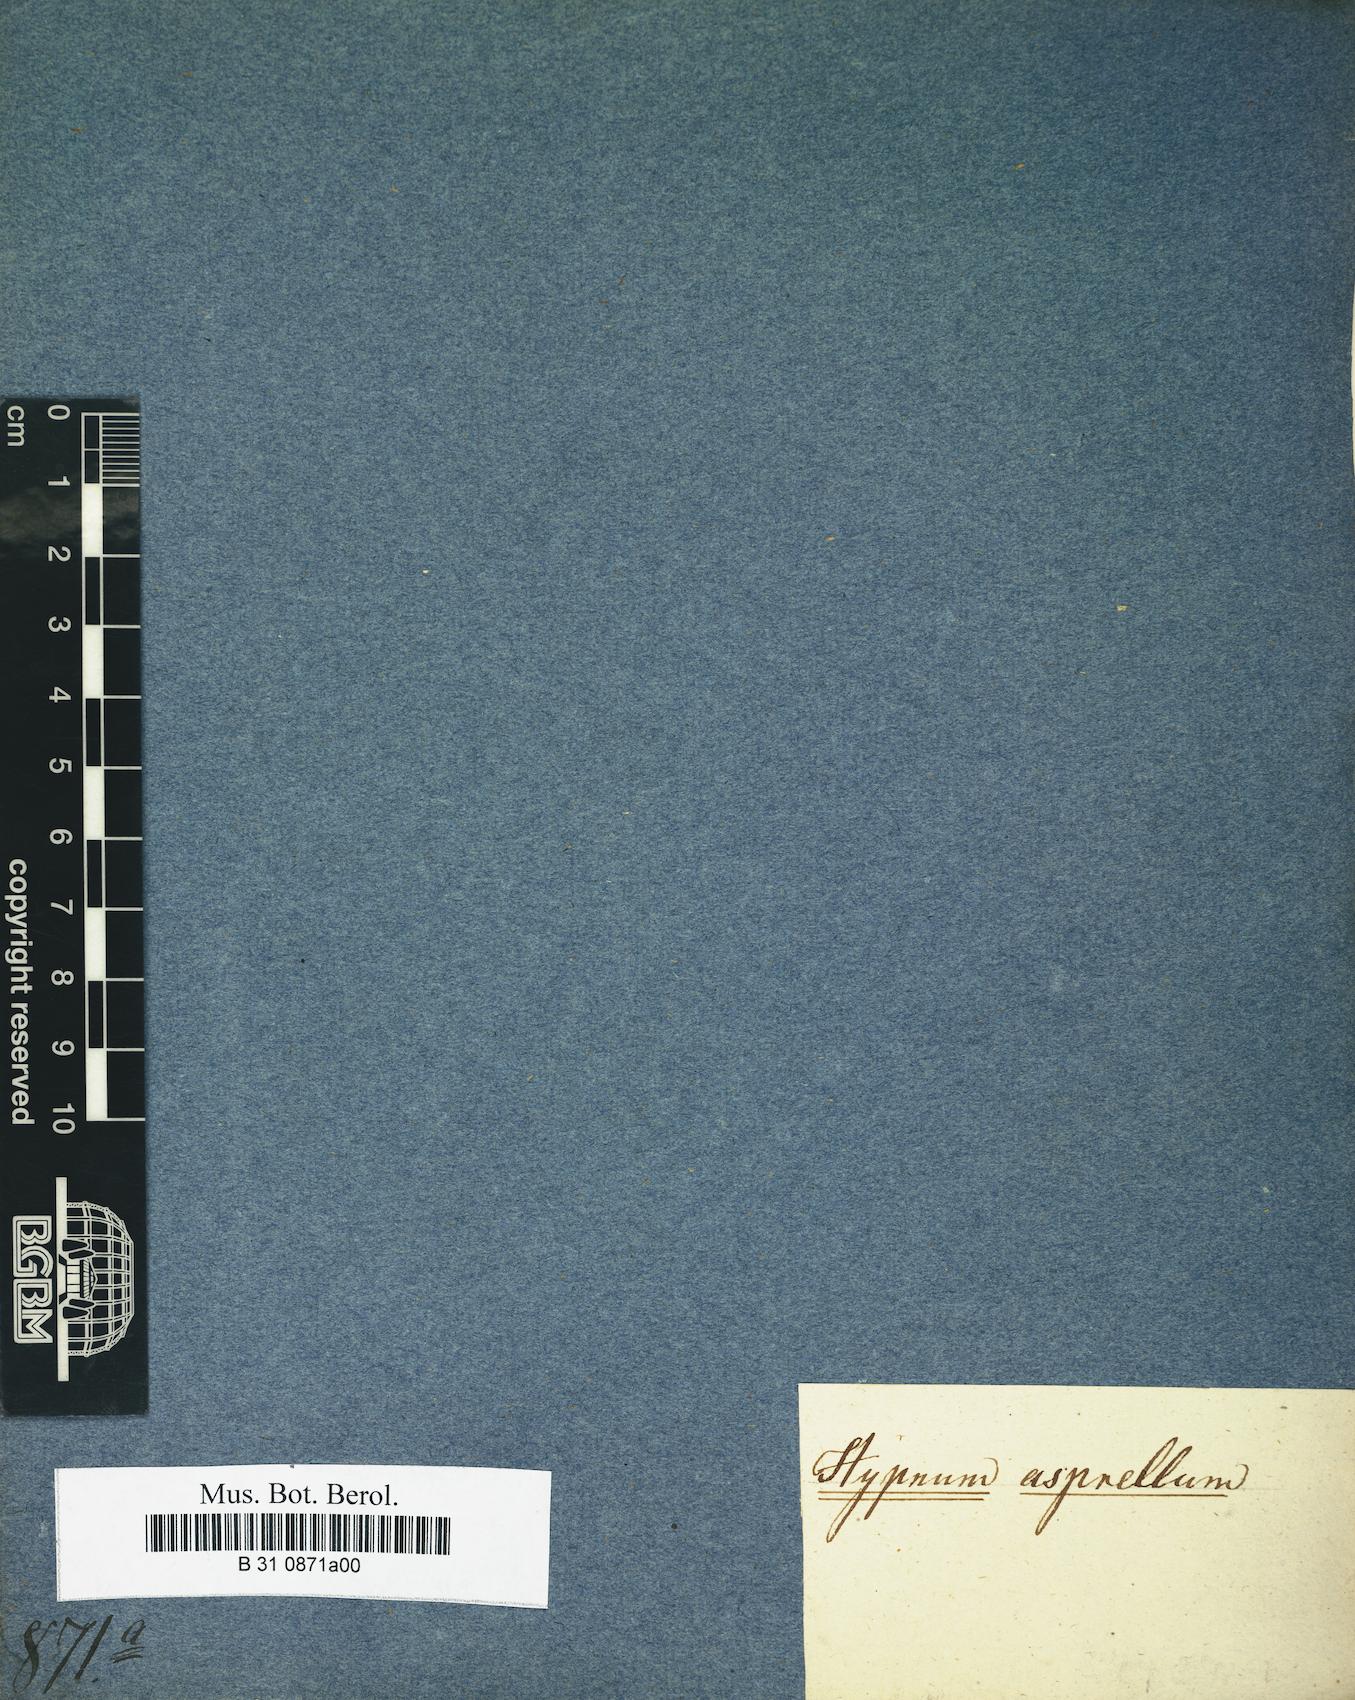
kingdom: Plantae
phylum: Bryophyta
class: Bryopsida
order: Hypnales
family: Brachytheciaceae
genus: Sciuro-hypnum
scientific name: Sciuro-hypnum plumosum
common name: Rusty feather-moss
